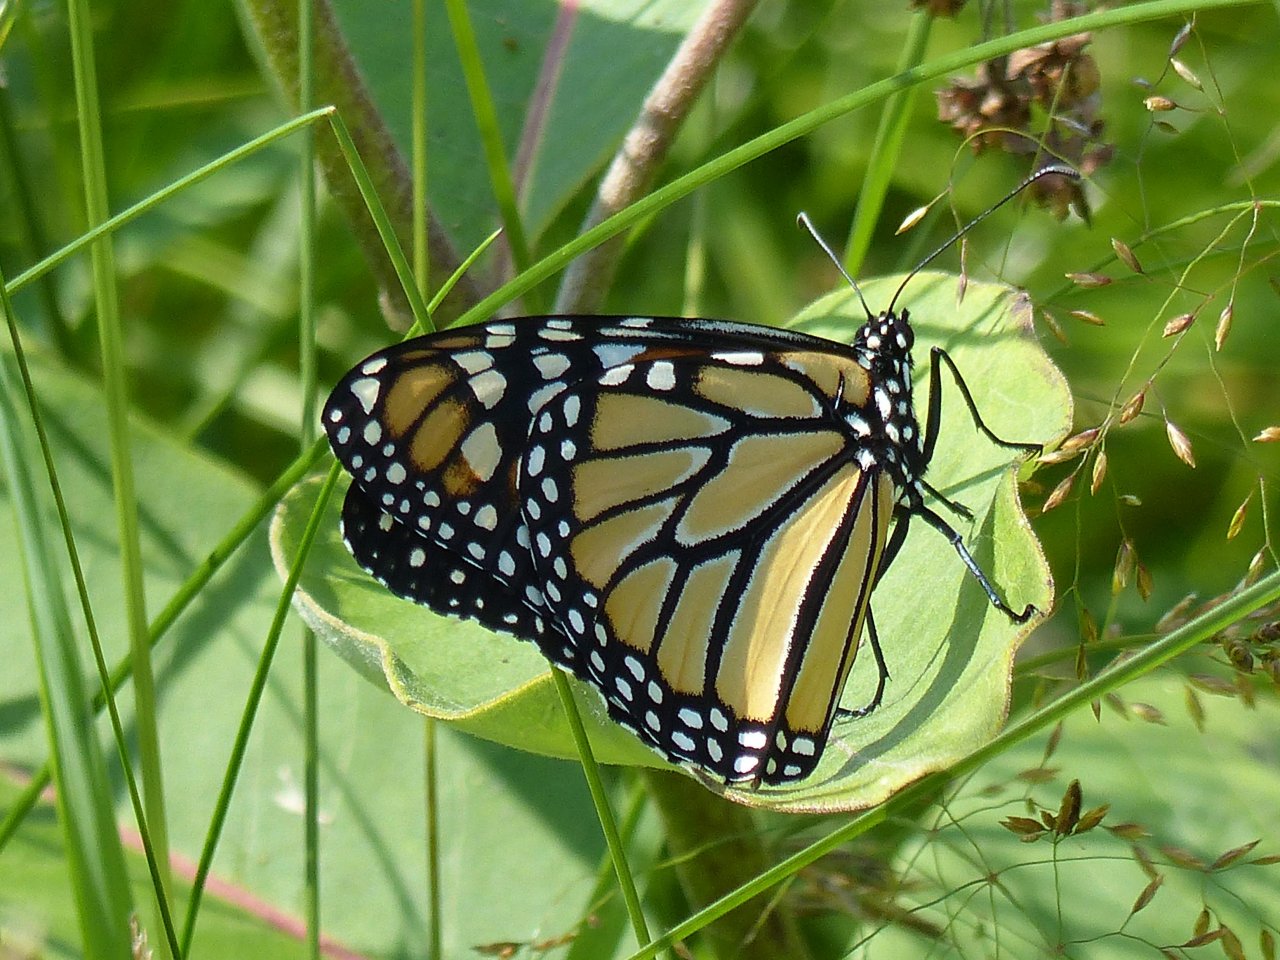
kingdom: Animalia
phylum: Arthropoda
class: Insecta
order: Lepidoptera
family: Nymphalidae
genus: Danaus
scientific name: Danaus plexippus
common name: Monarch
